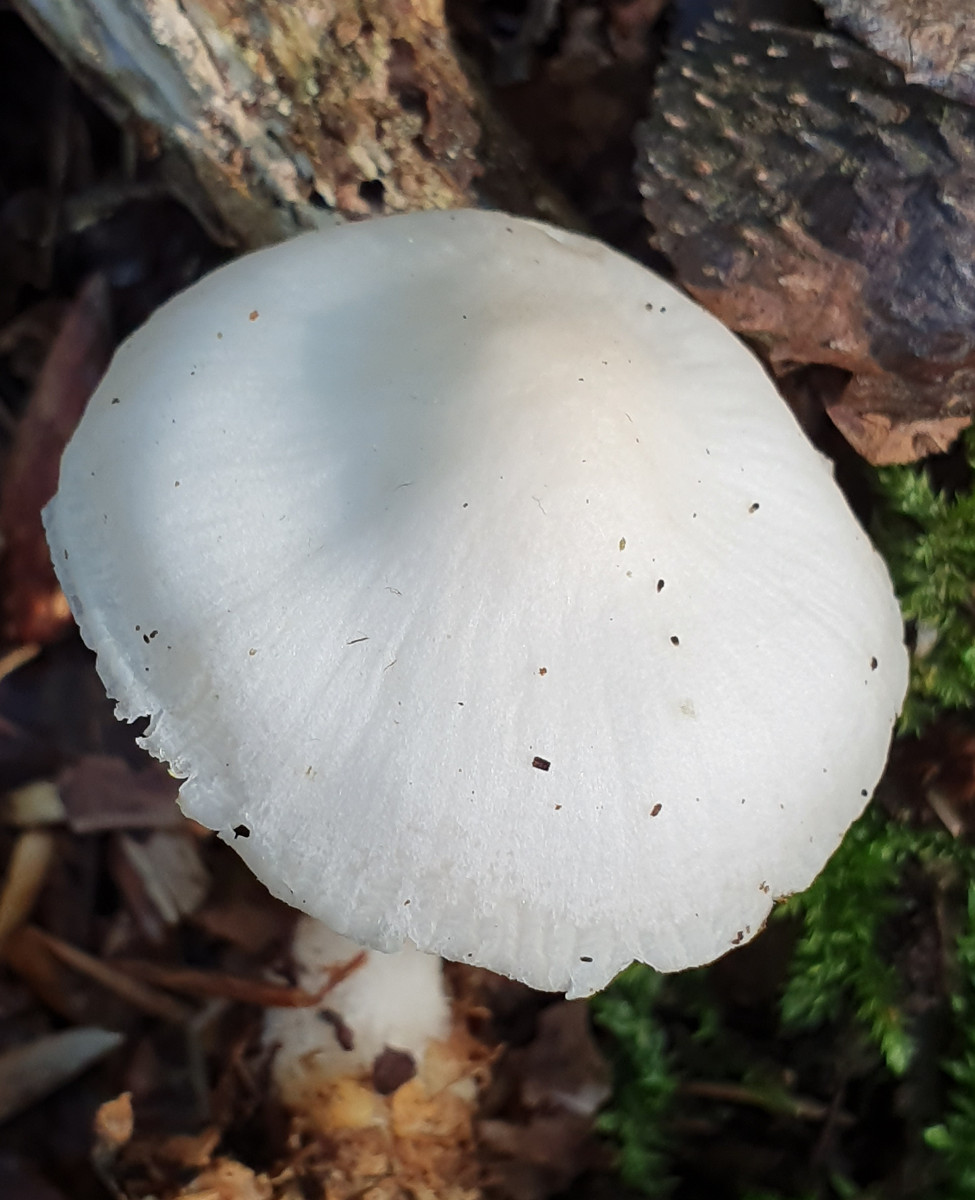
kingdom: Fungi
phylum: Basidiomycota
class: Agaricomycetes
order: Agaricales
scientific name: Agaricales
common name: champignonordenen
